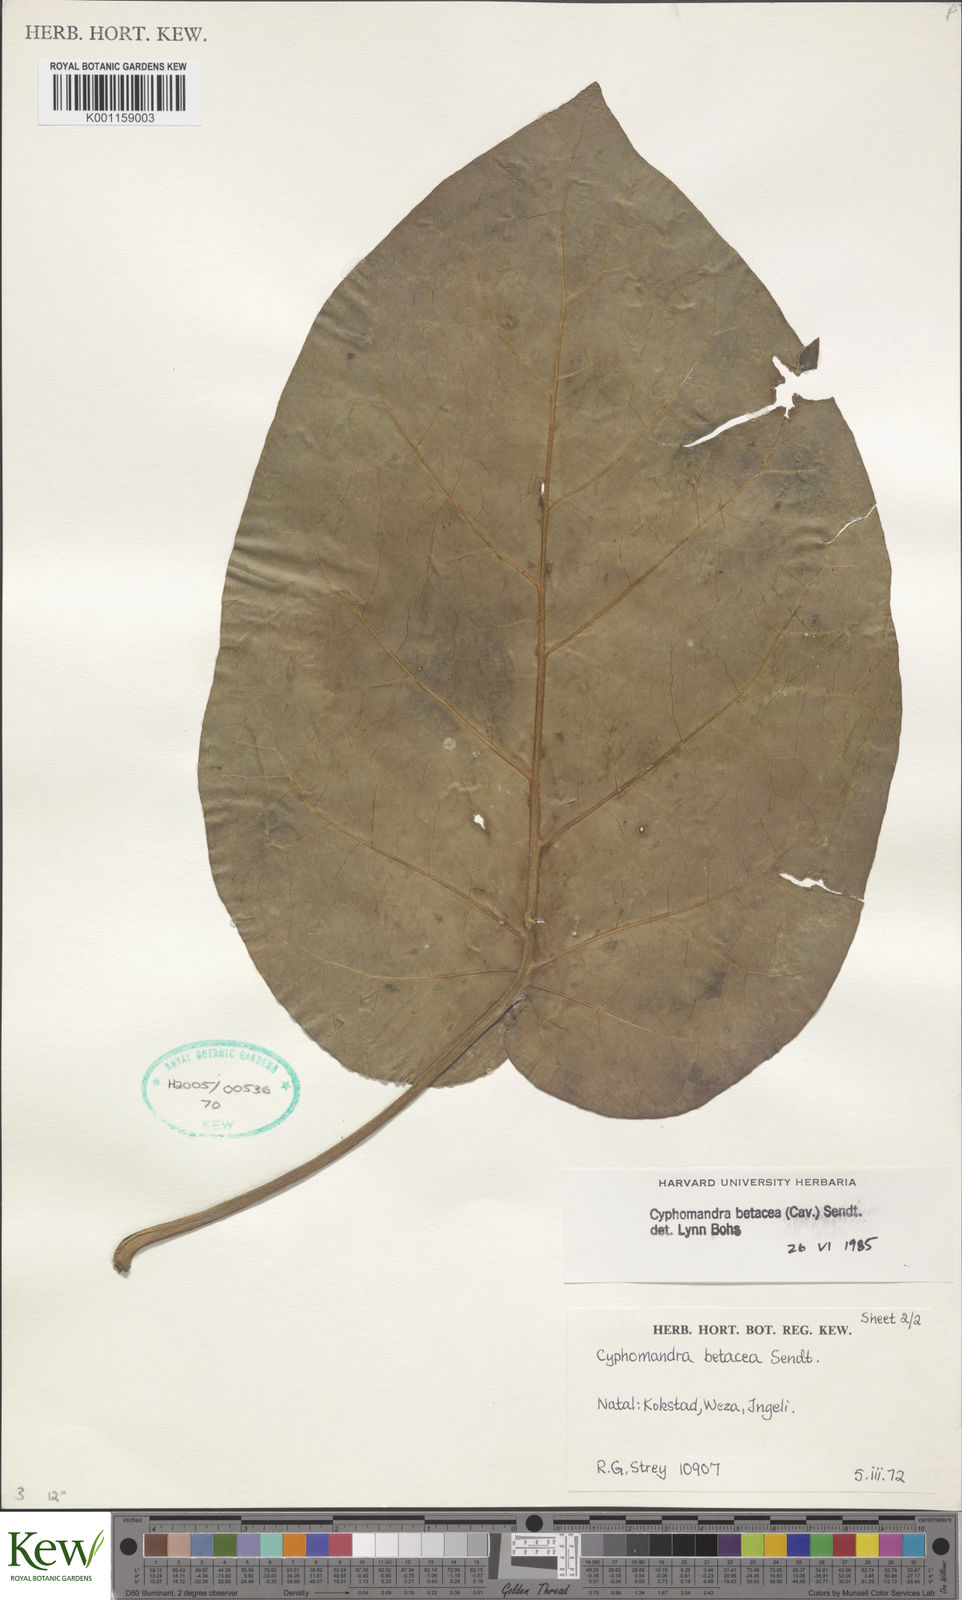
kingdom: Plantae
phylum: Tracheophyta
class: Magnoliopsida
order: Solanales
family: Solanaceae
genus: Solanum
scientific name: Solanum betaceum
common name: Tamarillo
